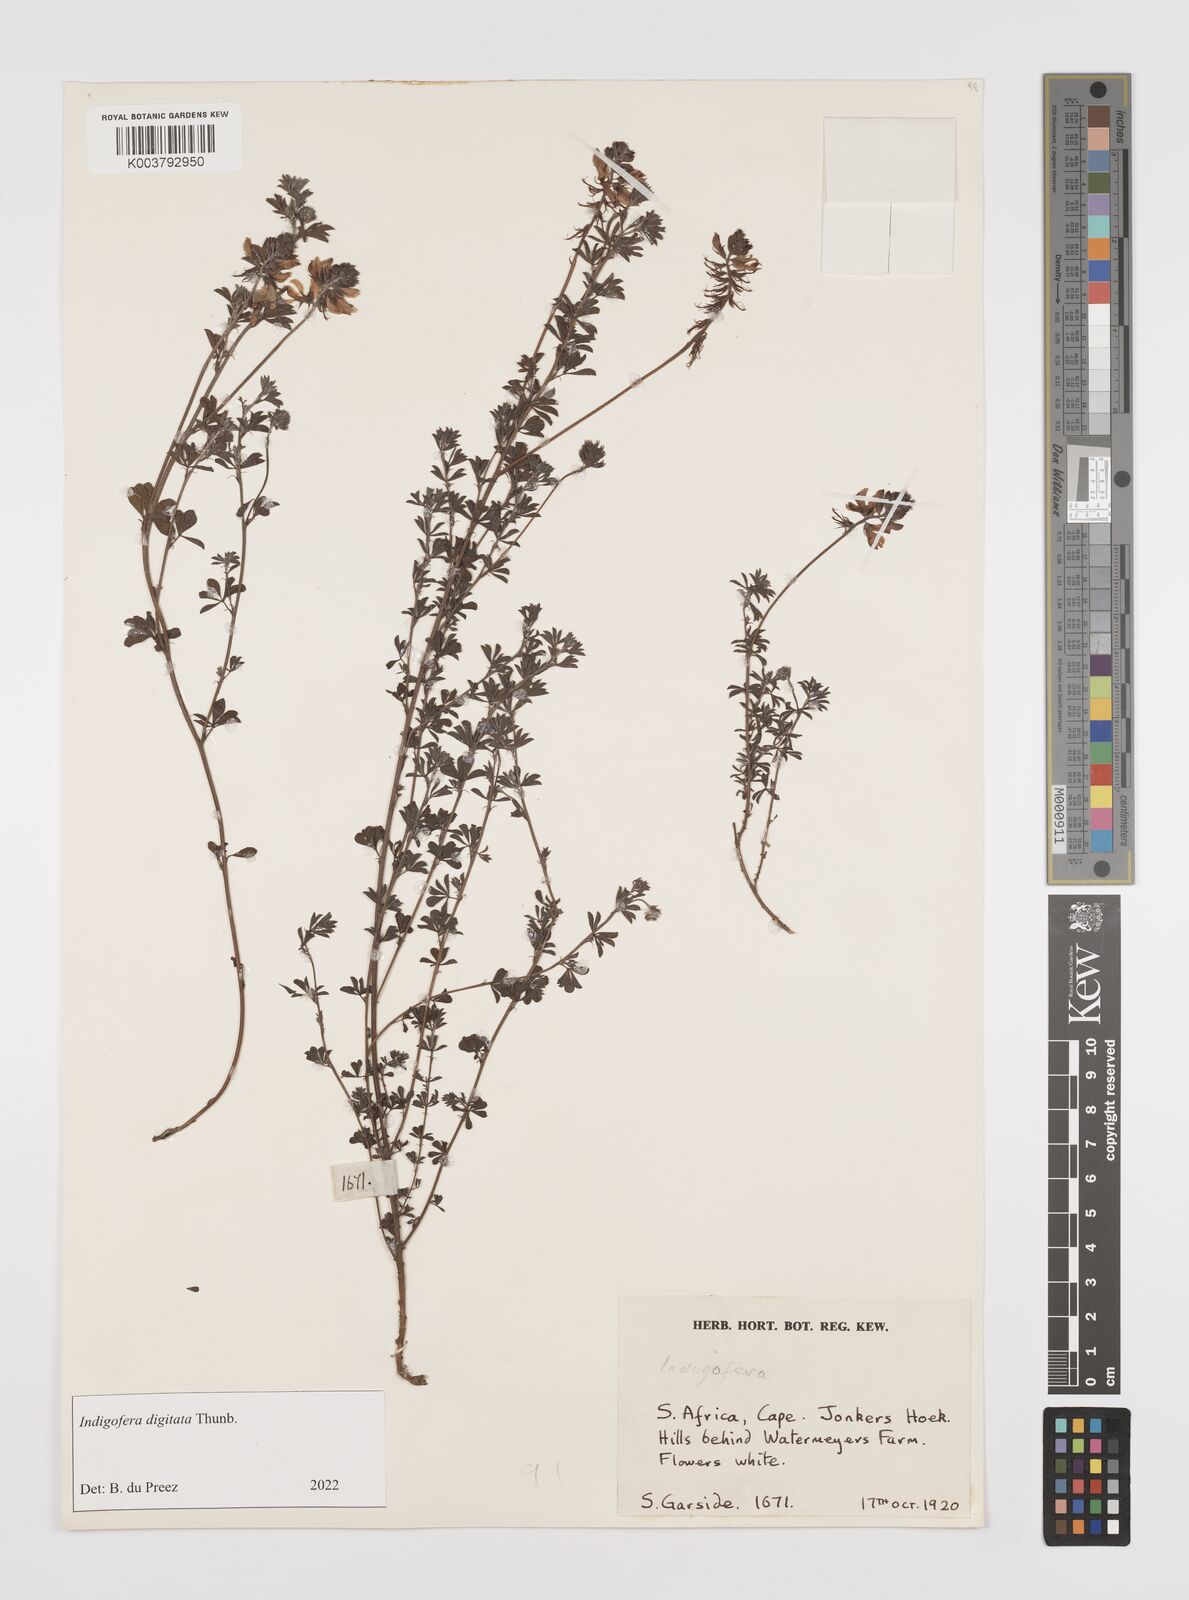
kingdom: Plantae
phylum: Tracheophyta
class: Magnoliopsida
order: Fabales
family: Fabaceae
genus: Indigofera
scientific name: Indigofera
